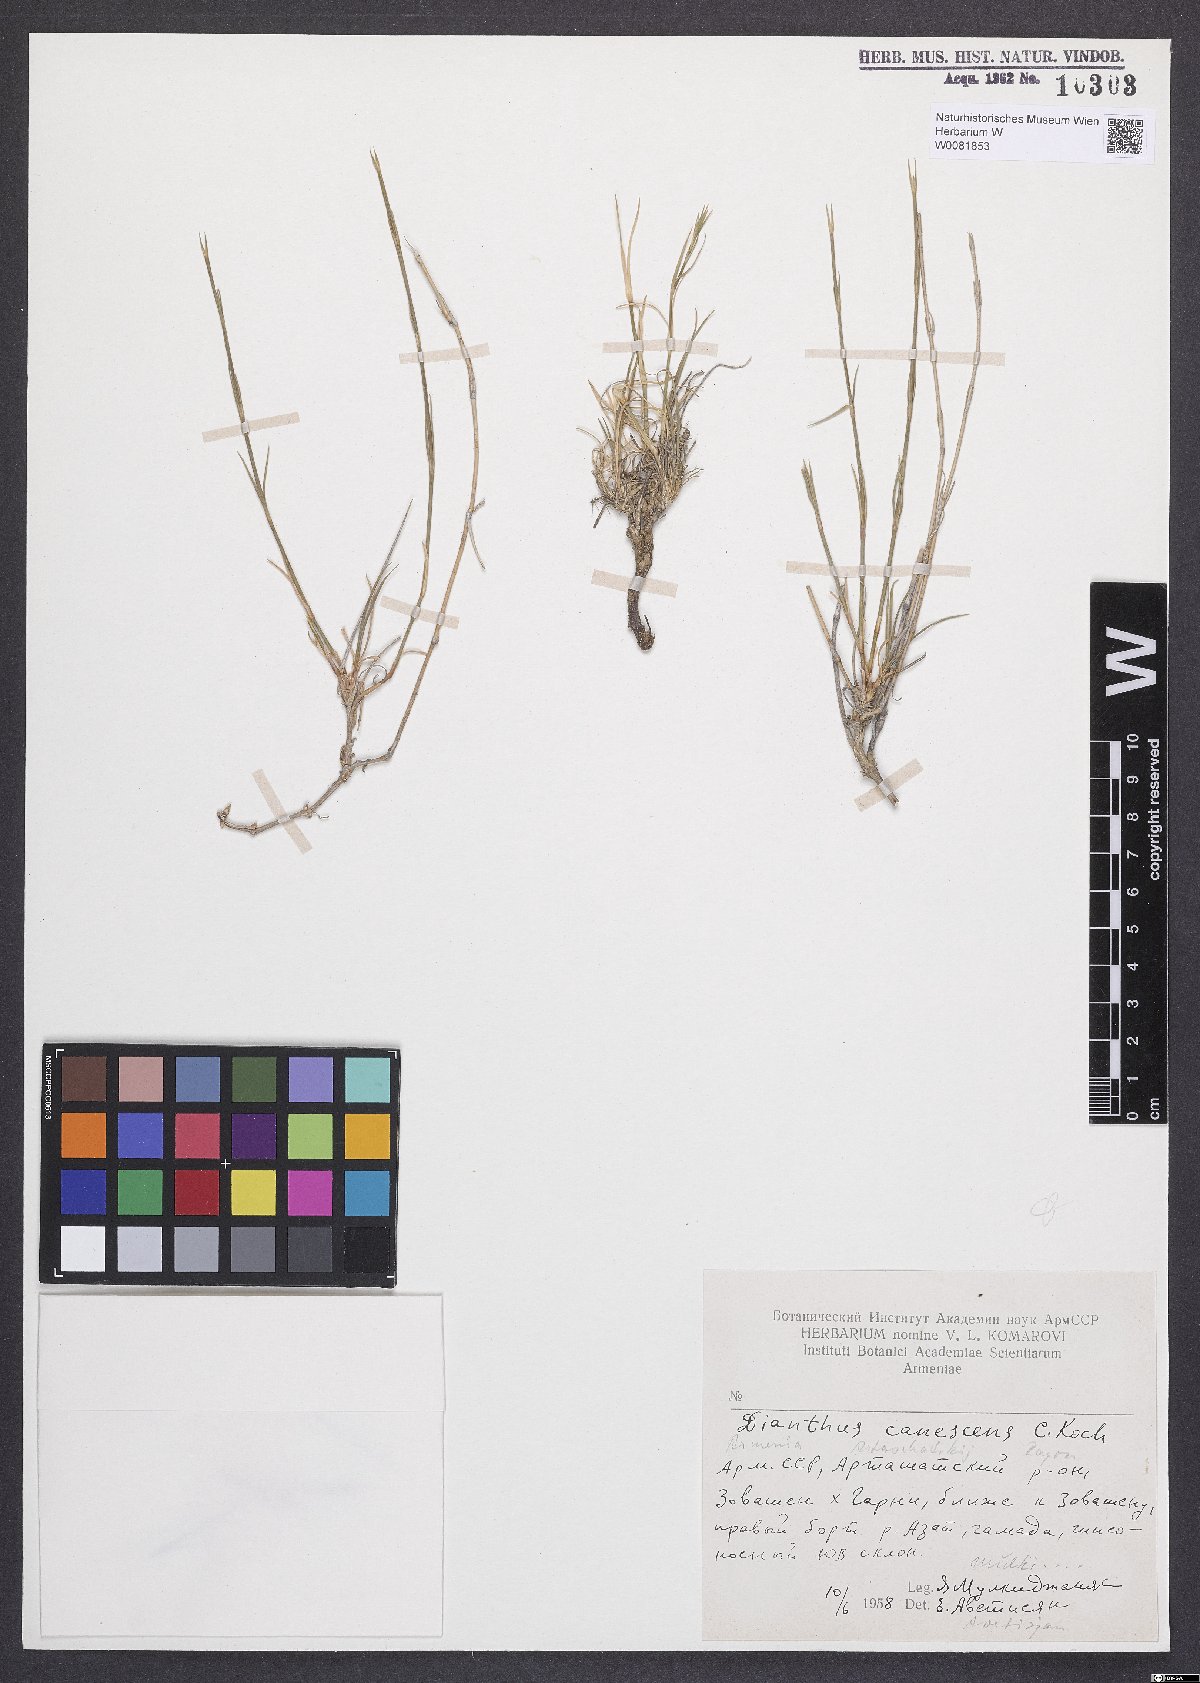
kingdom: Plantae
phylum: Tracheophyta
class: Magnoliopsida
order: Caryophyllales
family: Caryophyllaceae
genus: Dianthus
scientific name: Dianthus orientalis
